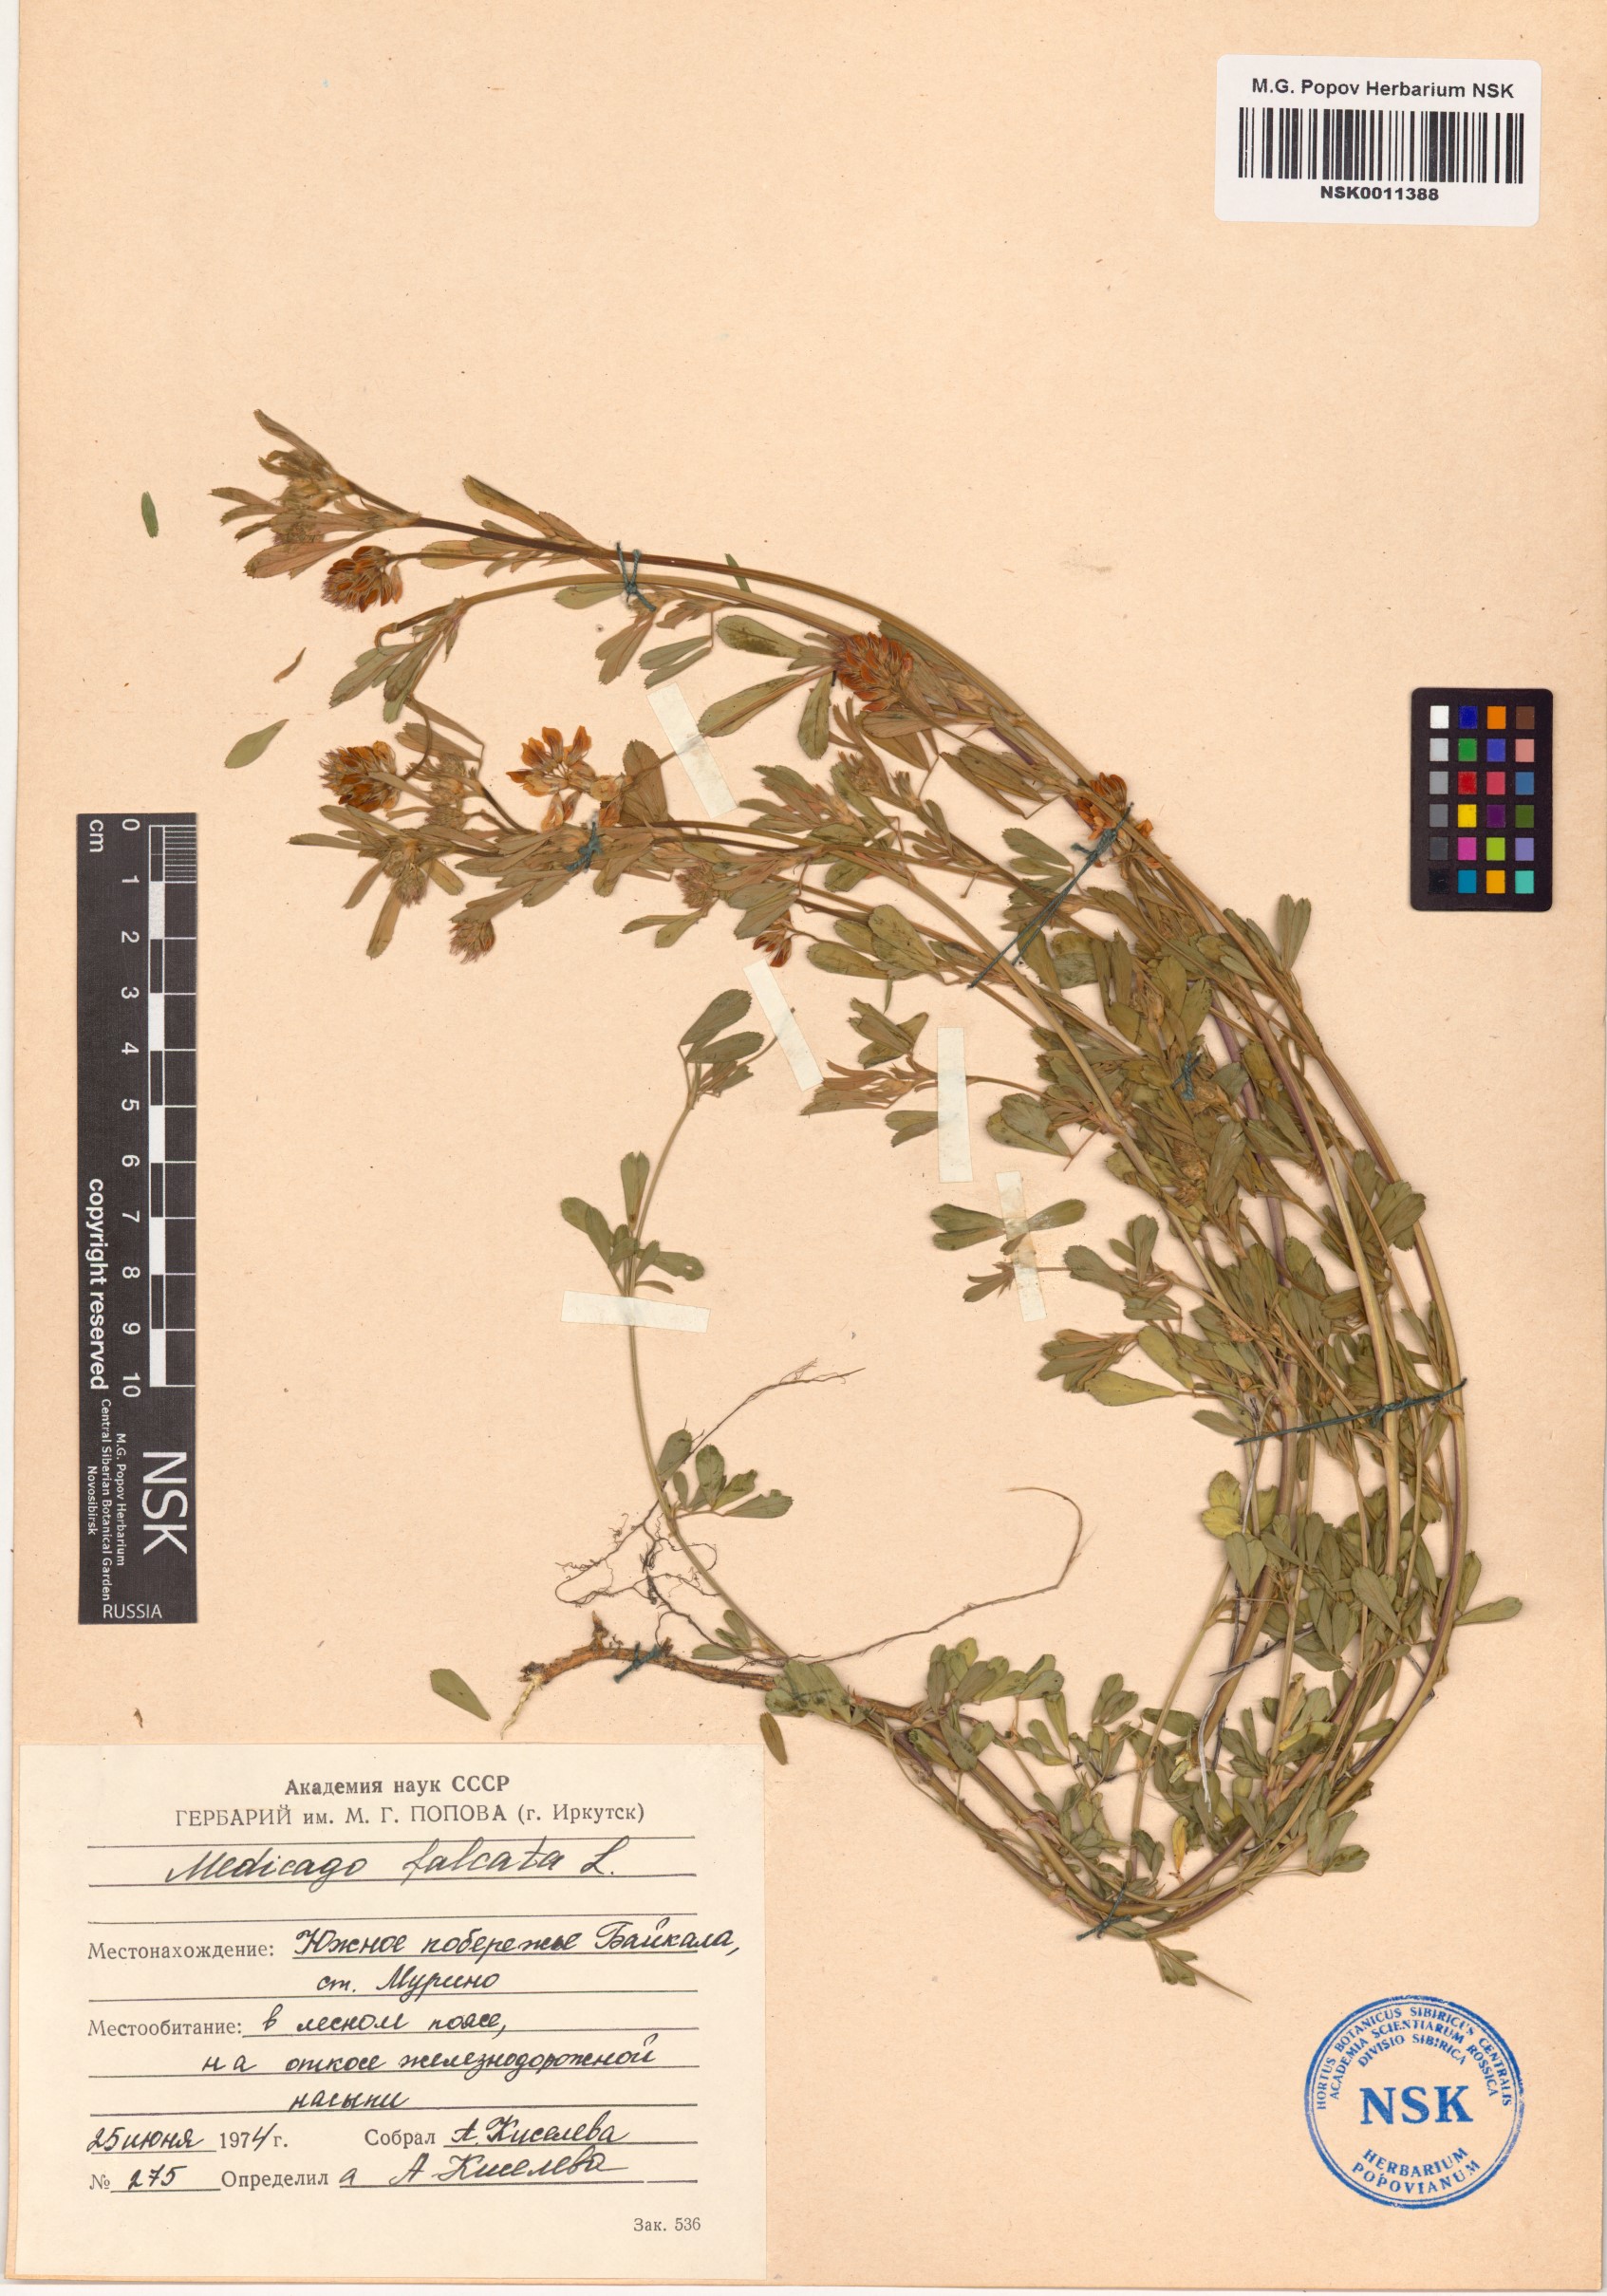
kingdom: Plantae
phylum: Tracheophyta
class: Magnoliopsida
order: Fabales
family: Fabaceae
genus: Medicago
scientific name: Medicago falcata
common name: Sickle medick
